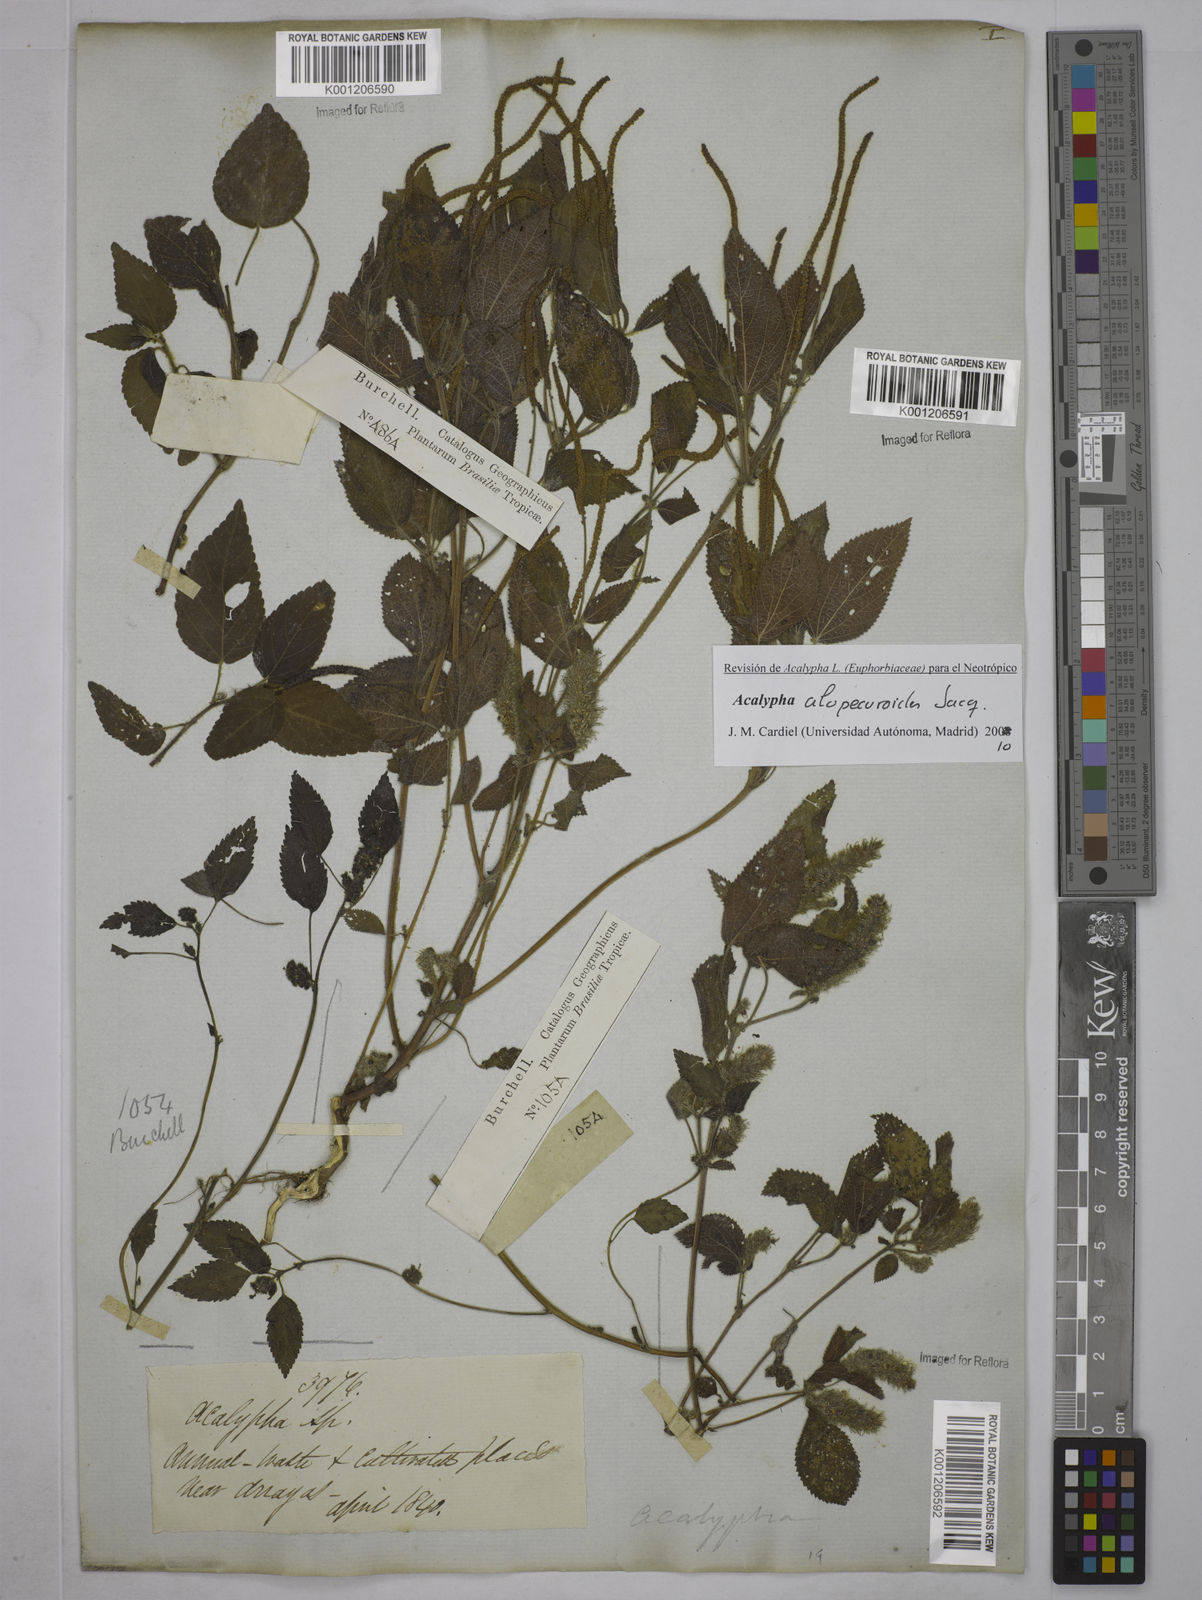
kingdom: Plantae
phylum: Tracheophyta
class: Magnoliopsida
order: Malpighiales
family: Euphorbiaceae
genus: Acalypha
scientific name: Acalypha alopecuroidea
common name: Foxtail copperleaf
